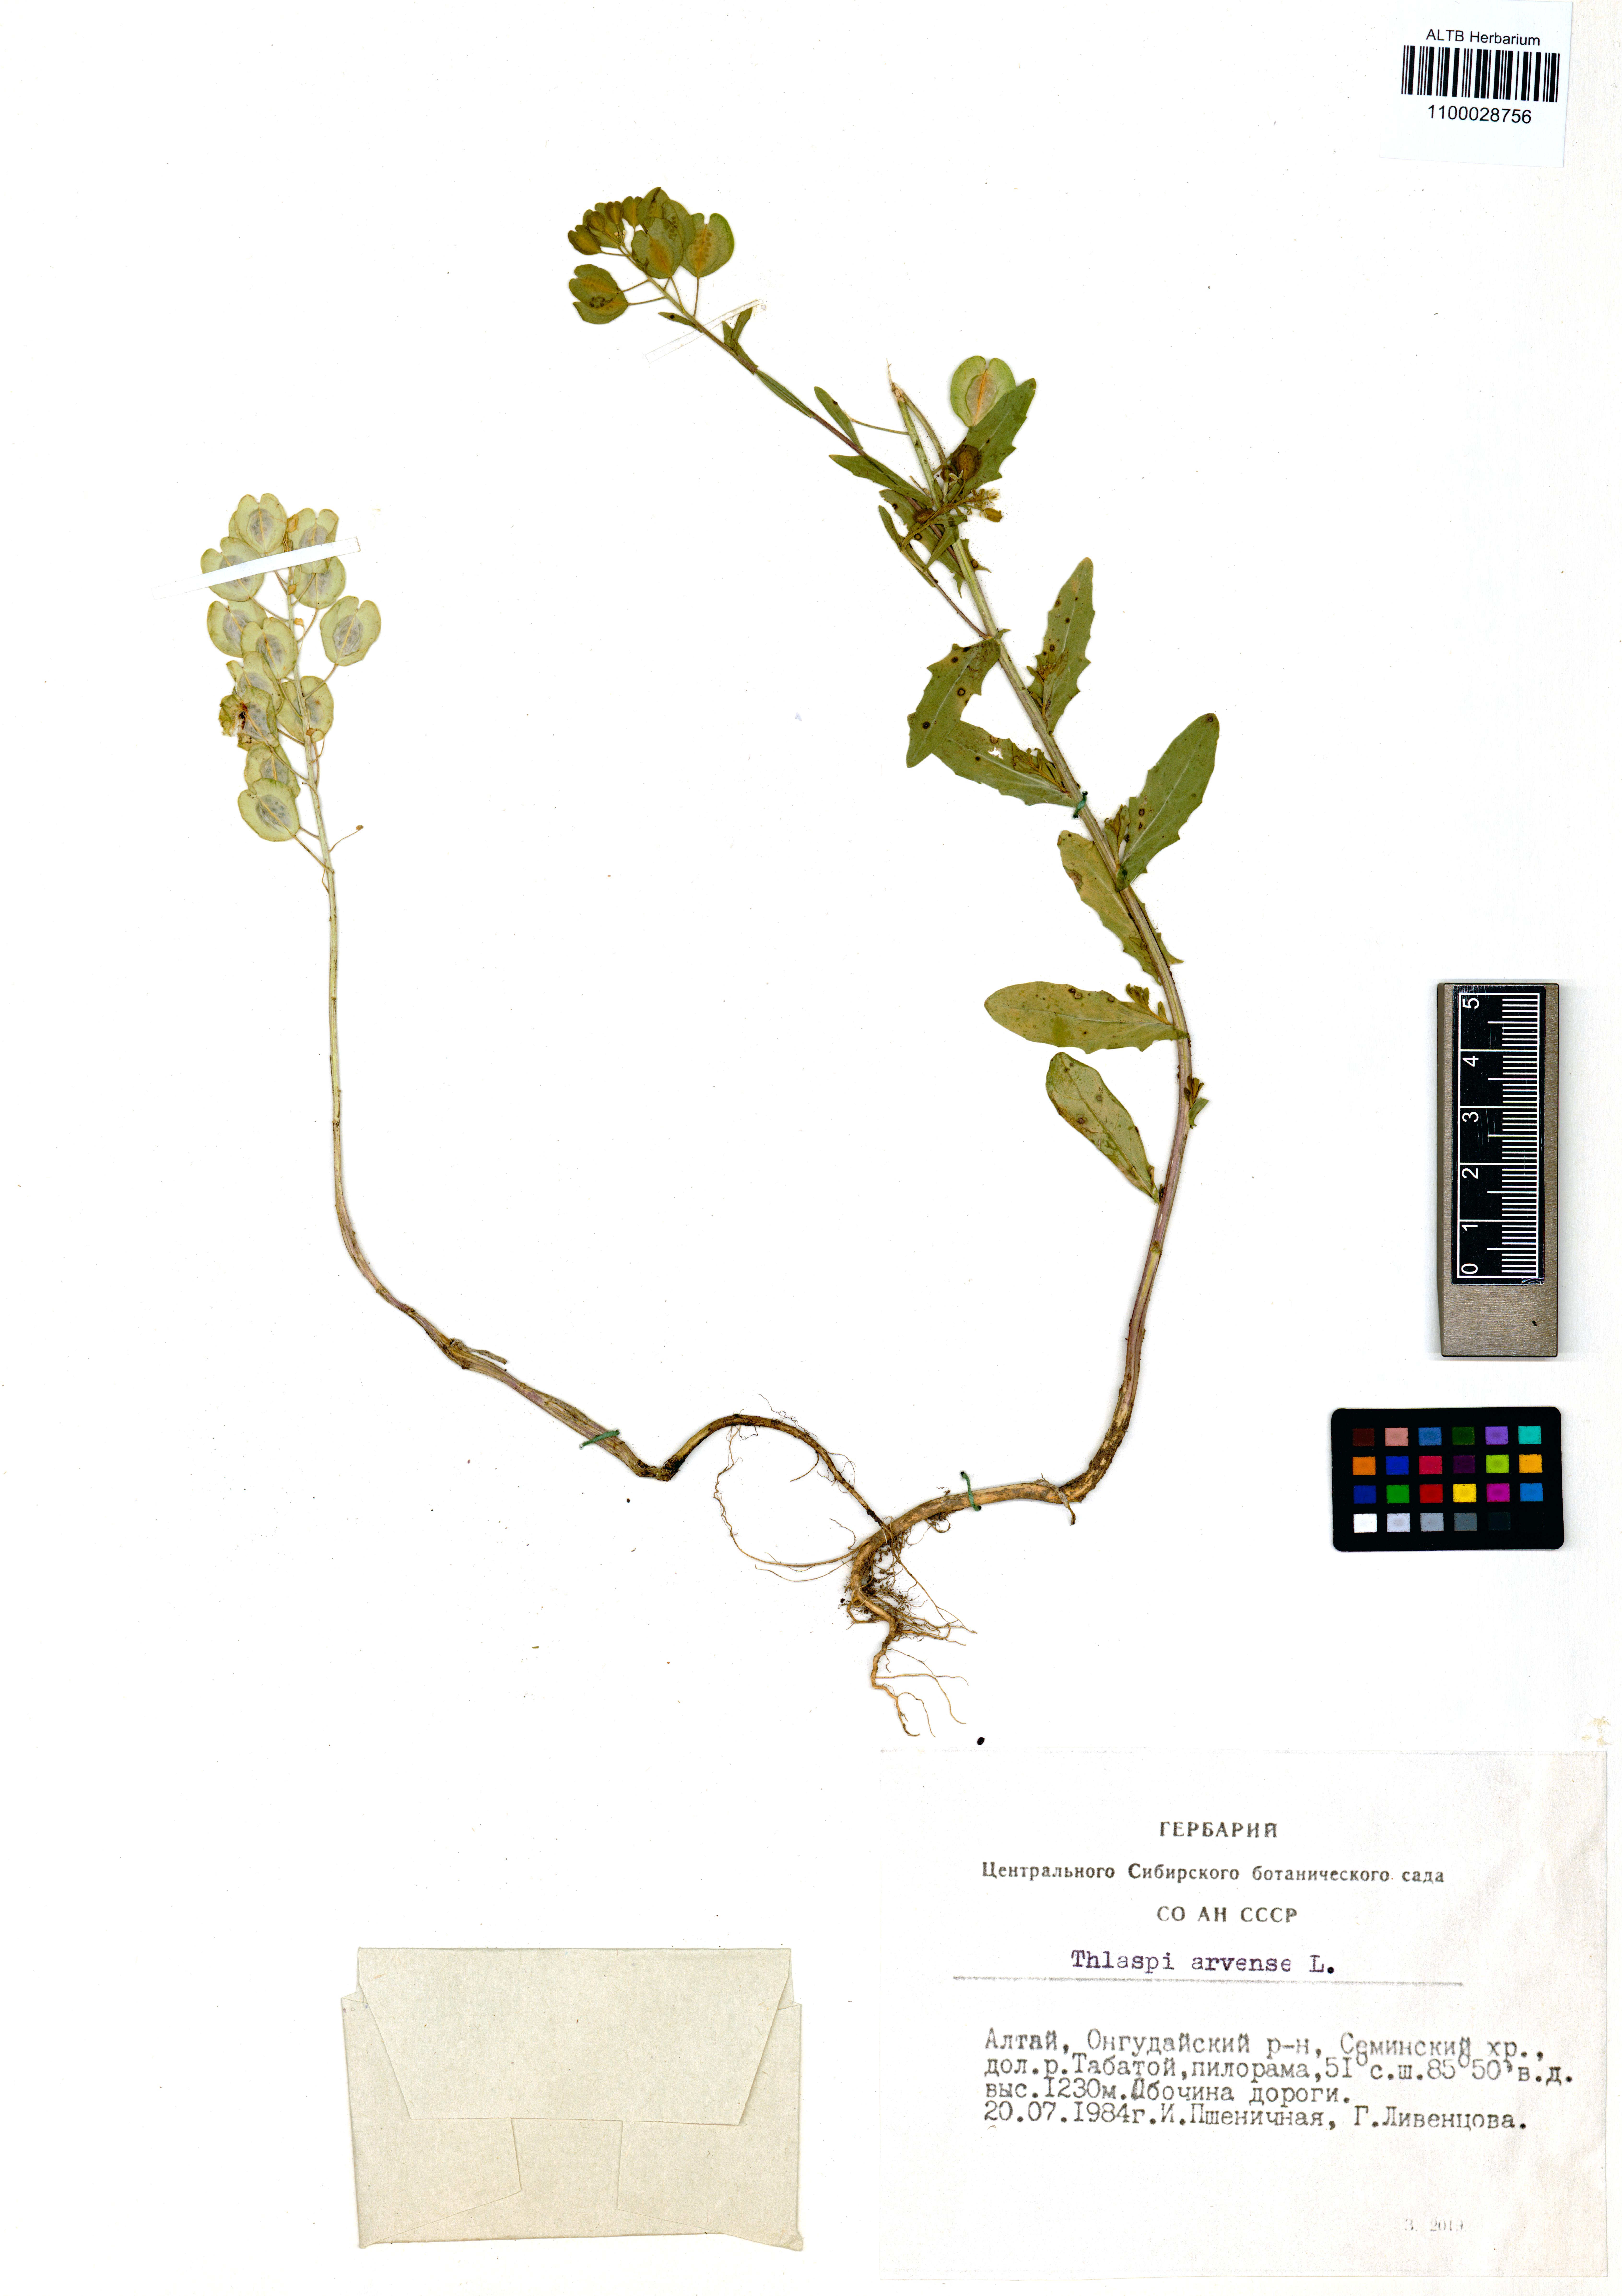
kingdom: Plantae
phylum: Tracheophyta
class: Magnoliopsida
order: Brassicales
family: Brassicaceae
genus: Thlaspi
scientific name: Thlaspi arvense
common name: Field pennycress
